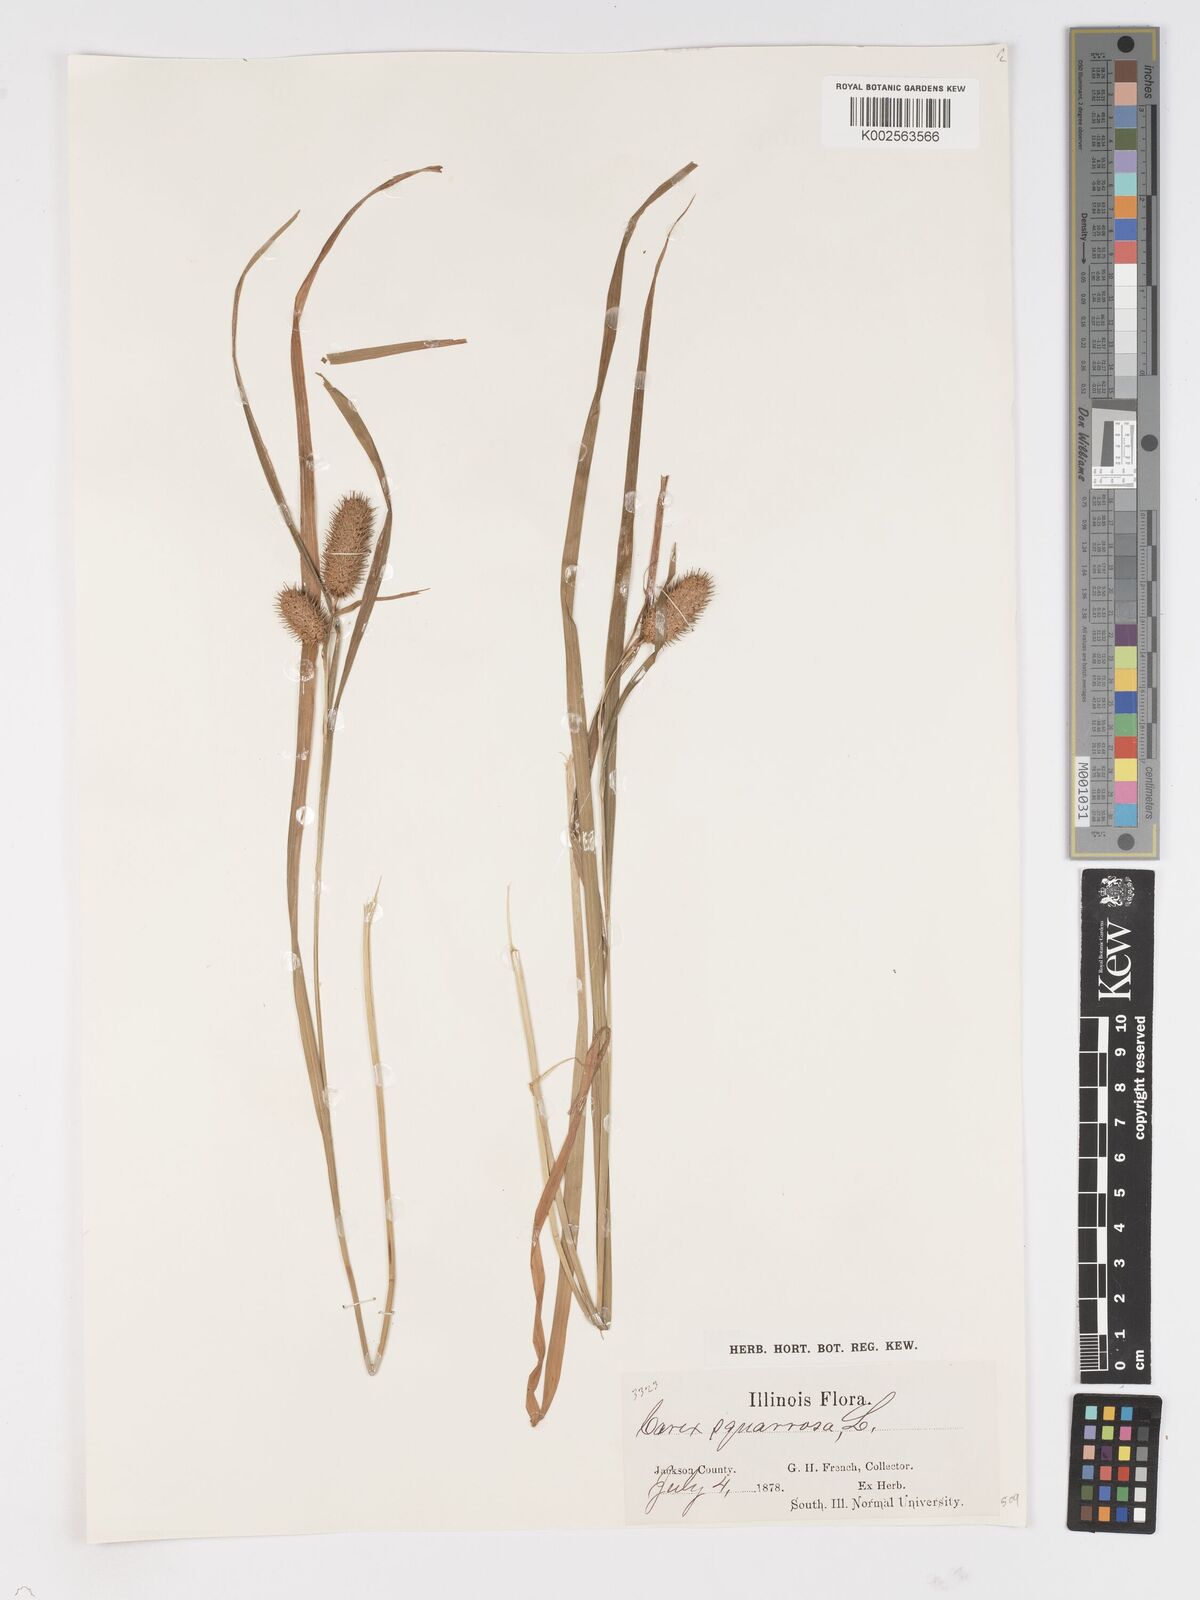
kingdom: Plantae
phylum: Tracheophyta
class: Liliopsida
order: Poales
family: Cyperaceae
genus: Carex
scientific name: Carex squarrosa
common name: Narrow-leaved cattail sedge
